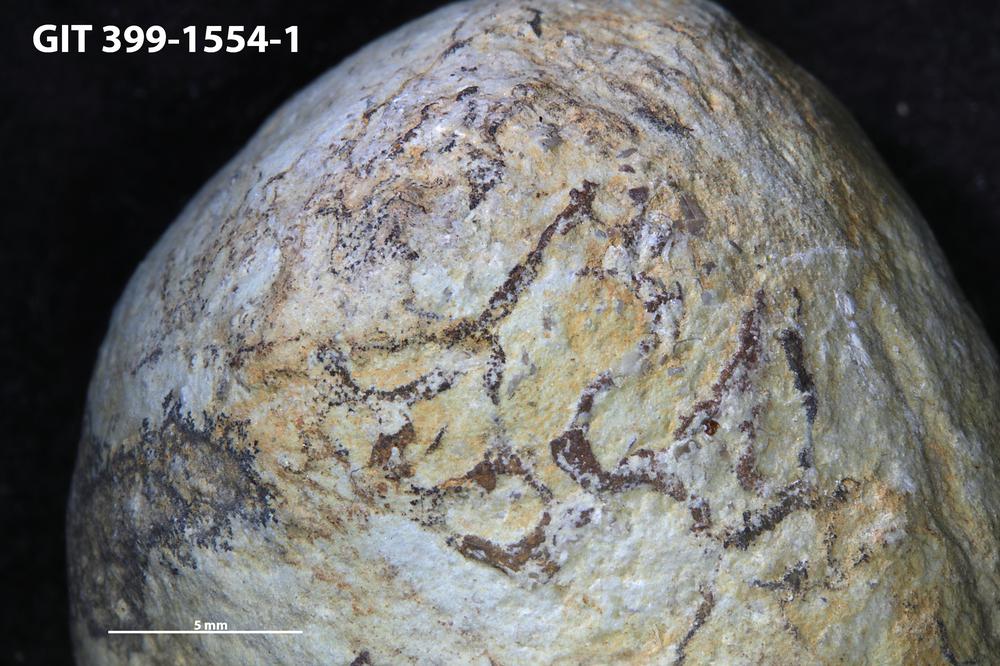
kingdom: Animalia
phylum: Annelida
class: Polychaeta
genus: Arachnostega
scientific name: Arachnostega gastrochaenae
